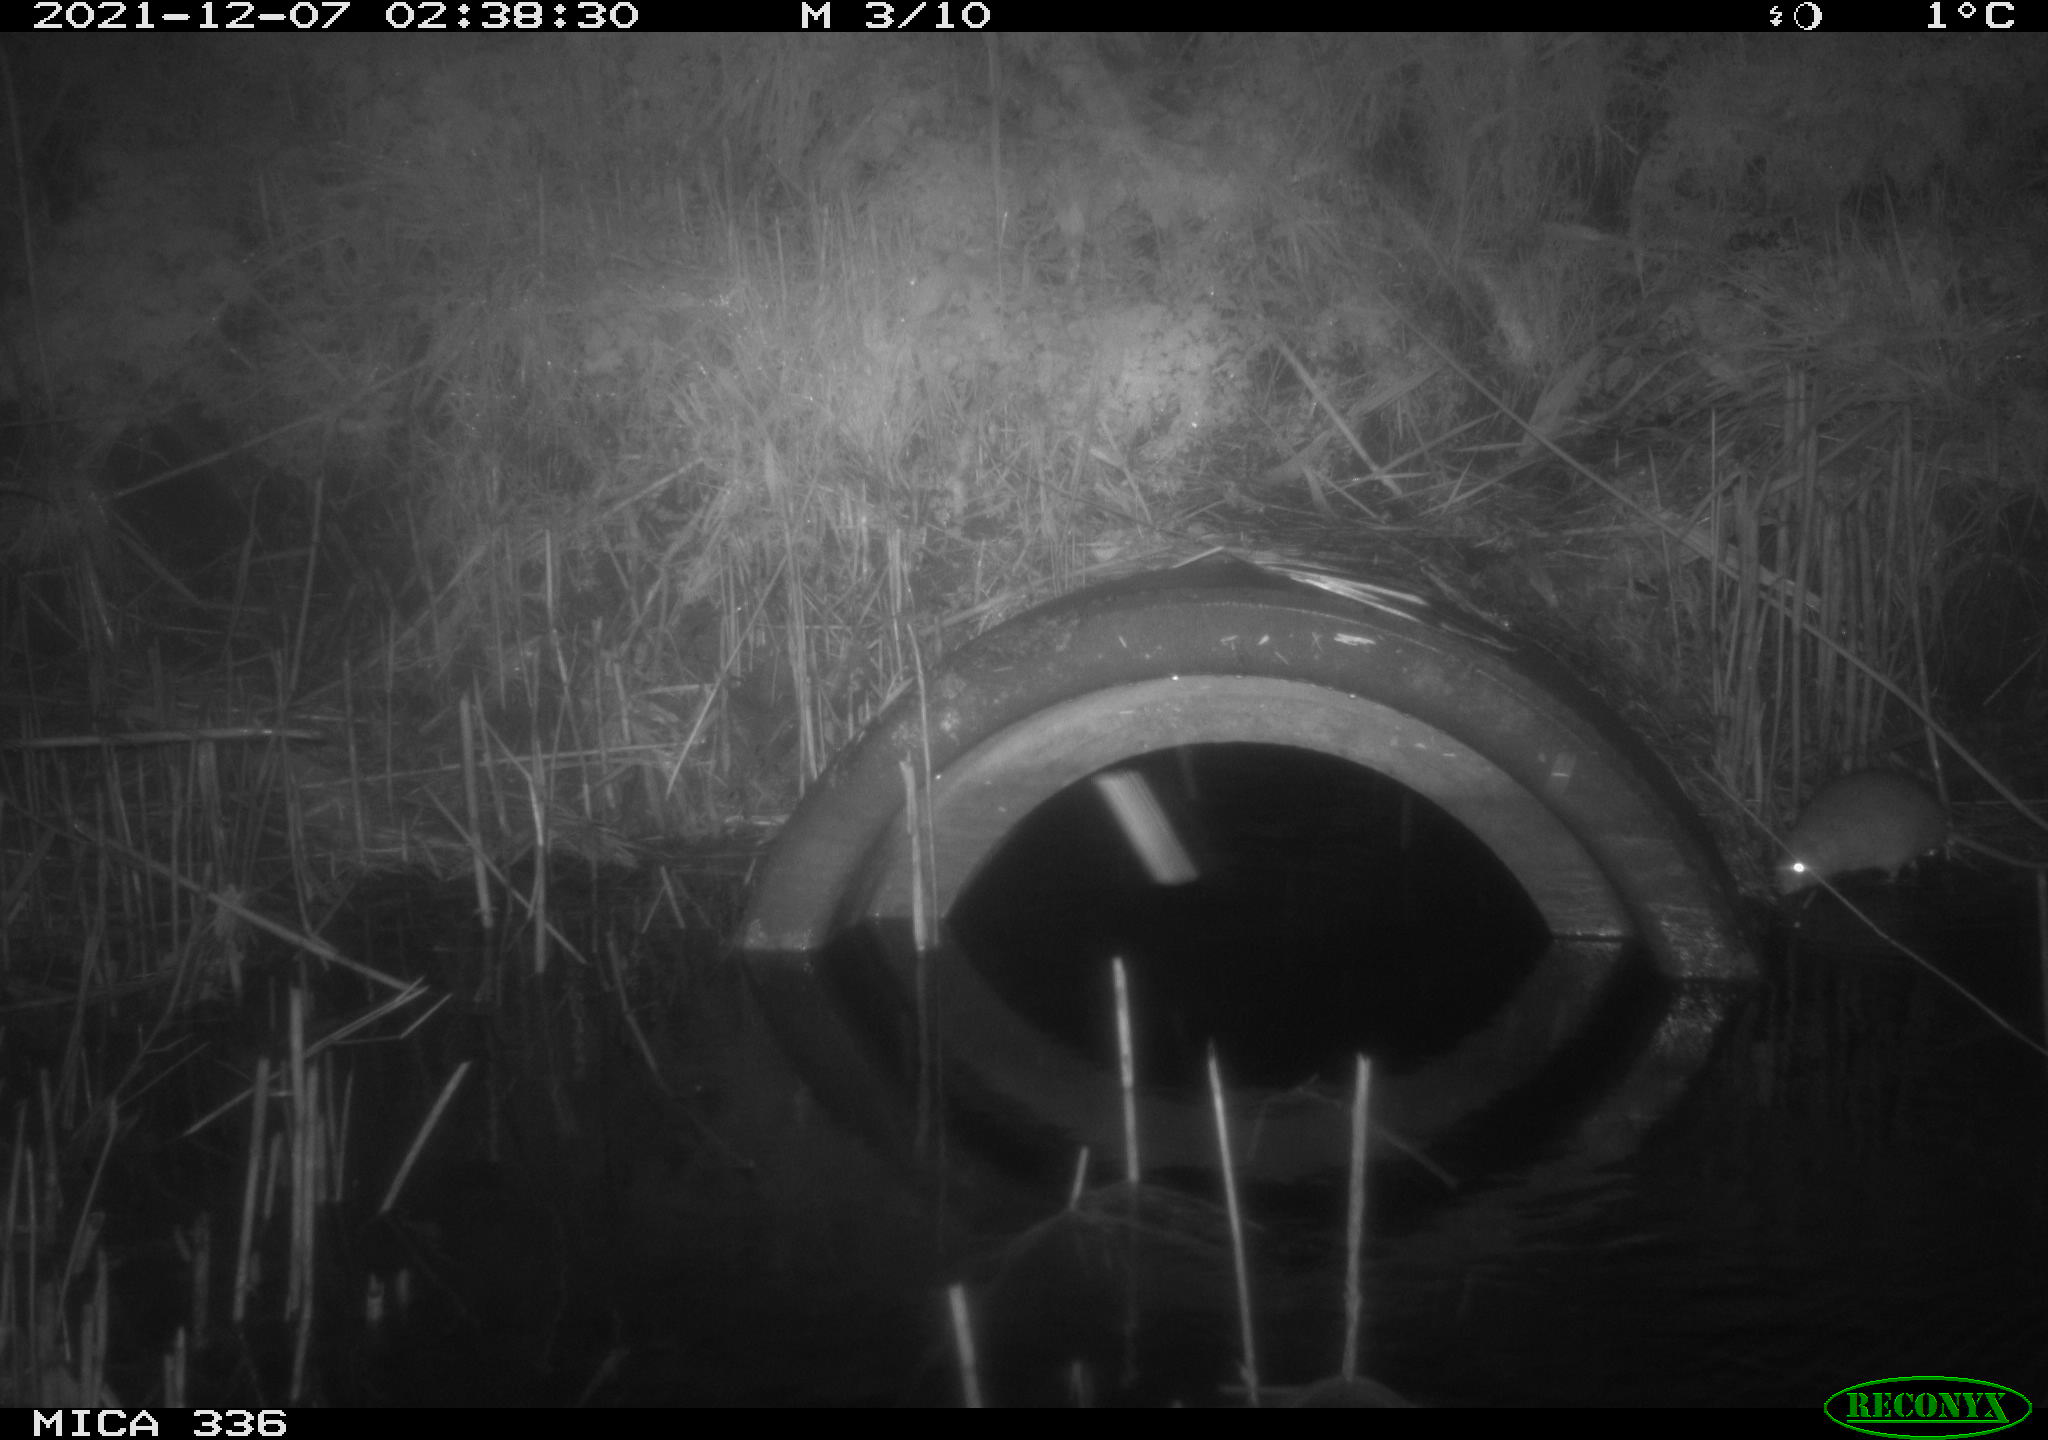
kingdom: Animalia
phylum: Chordata
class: Mammalia
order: Rodentia
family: Muridae
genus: Rattus
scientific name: Rattus norvegicus
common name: Brown rat
